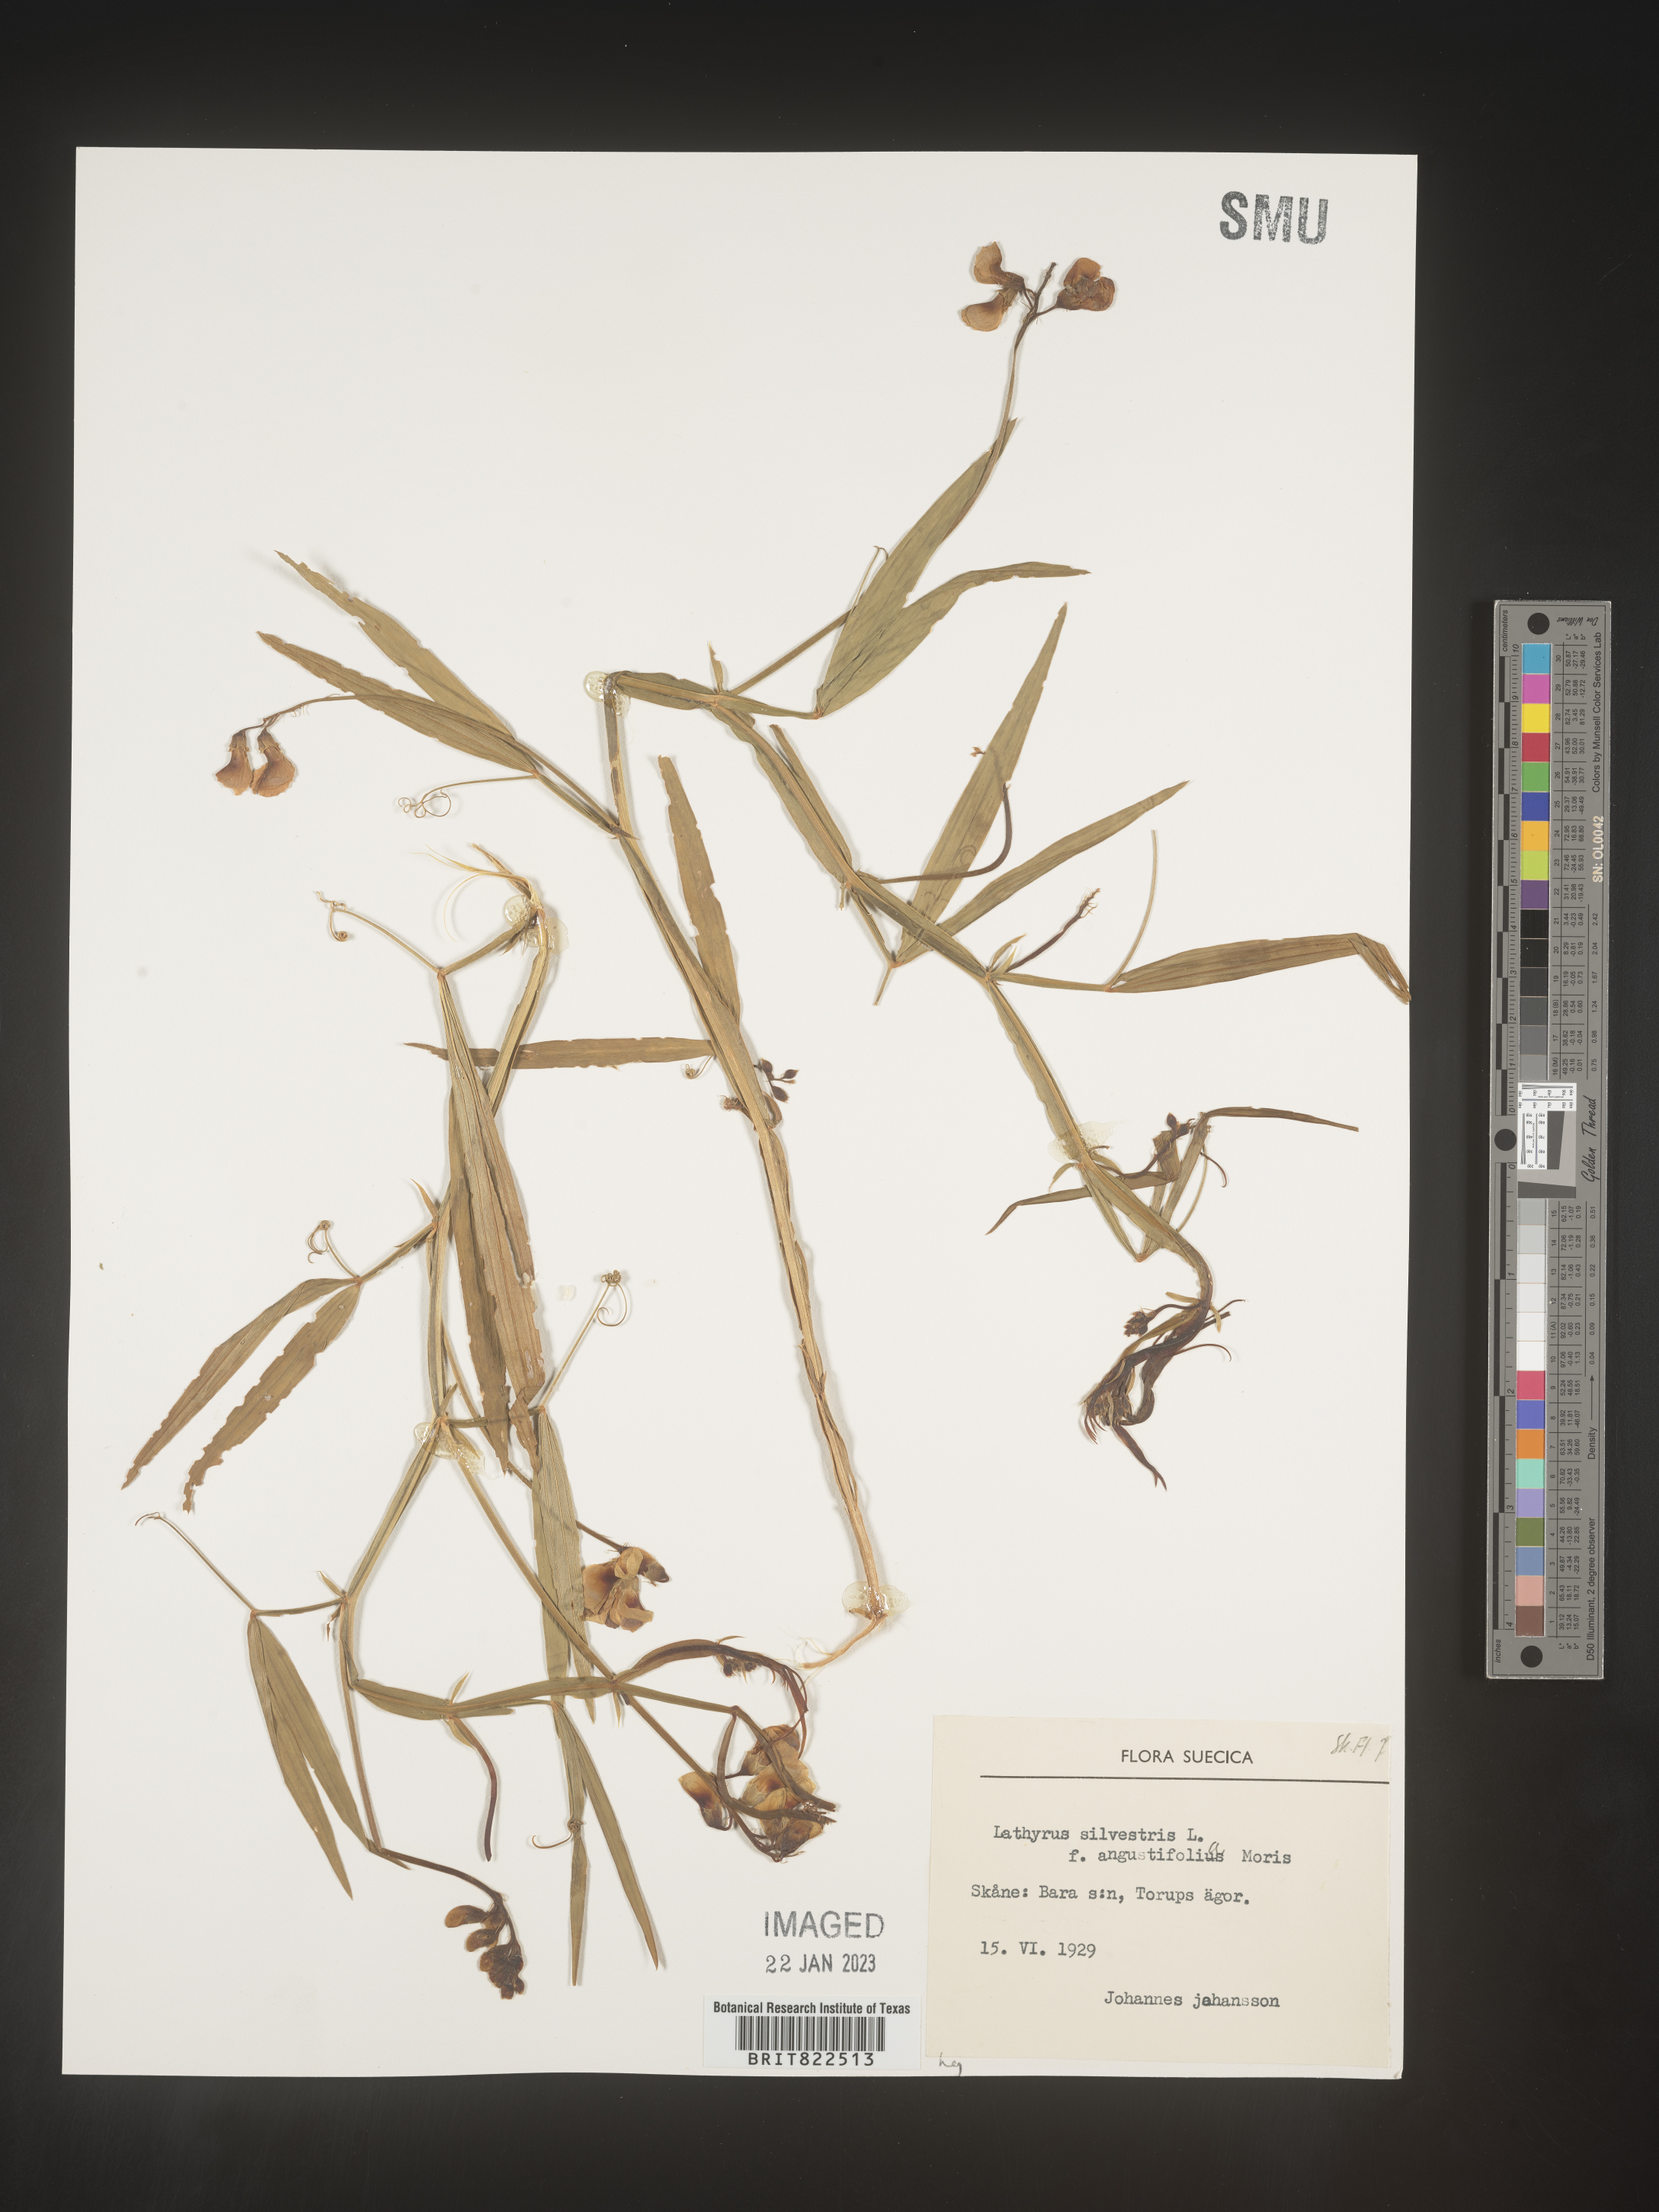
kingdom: Plantae
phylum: Tracheophyta
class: Magnoliopsida
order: Fabales
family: Fabaceae
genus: Lathyrus
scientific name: Lathyrus
